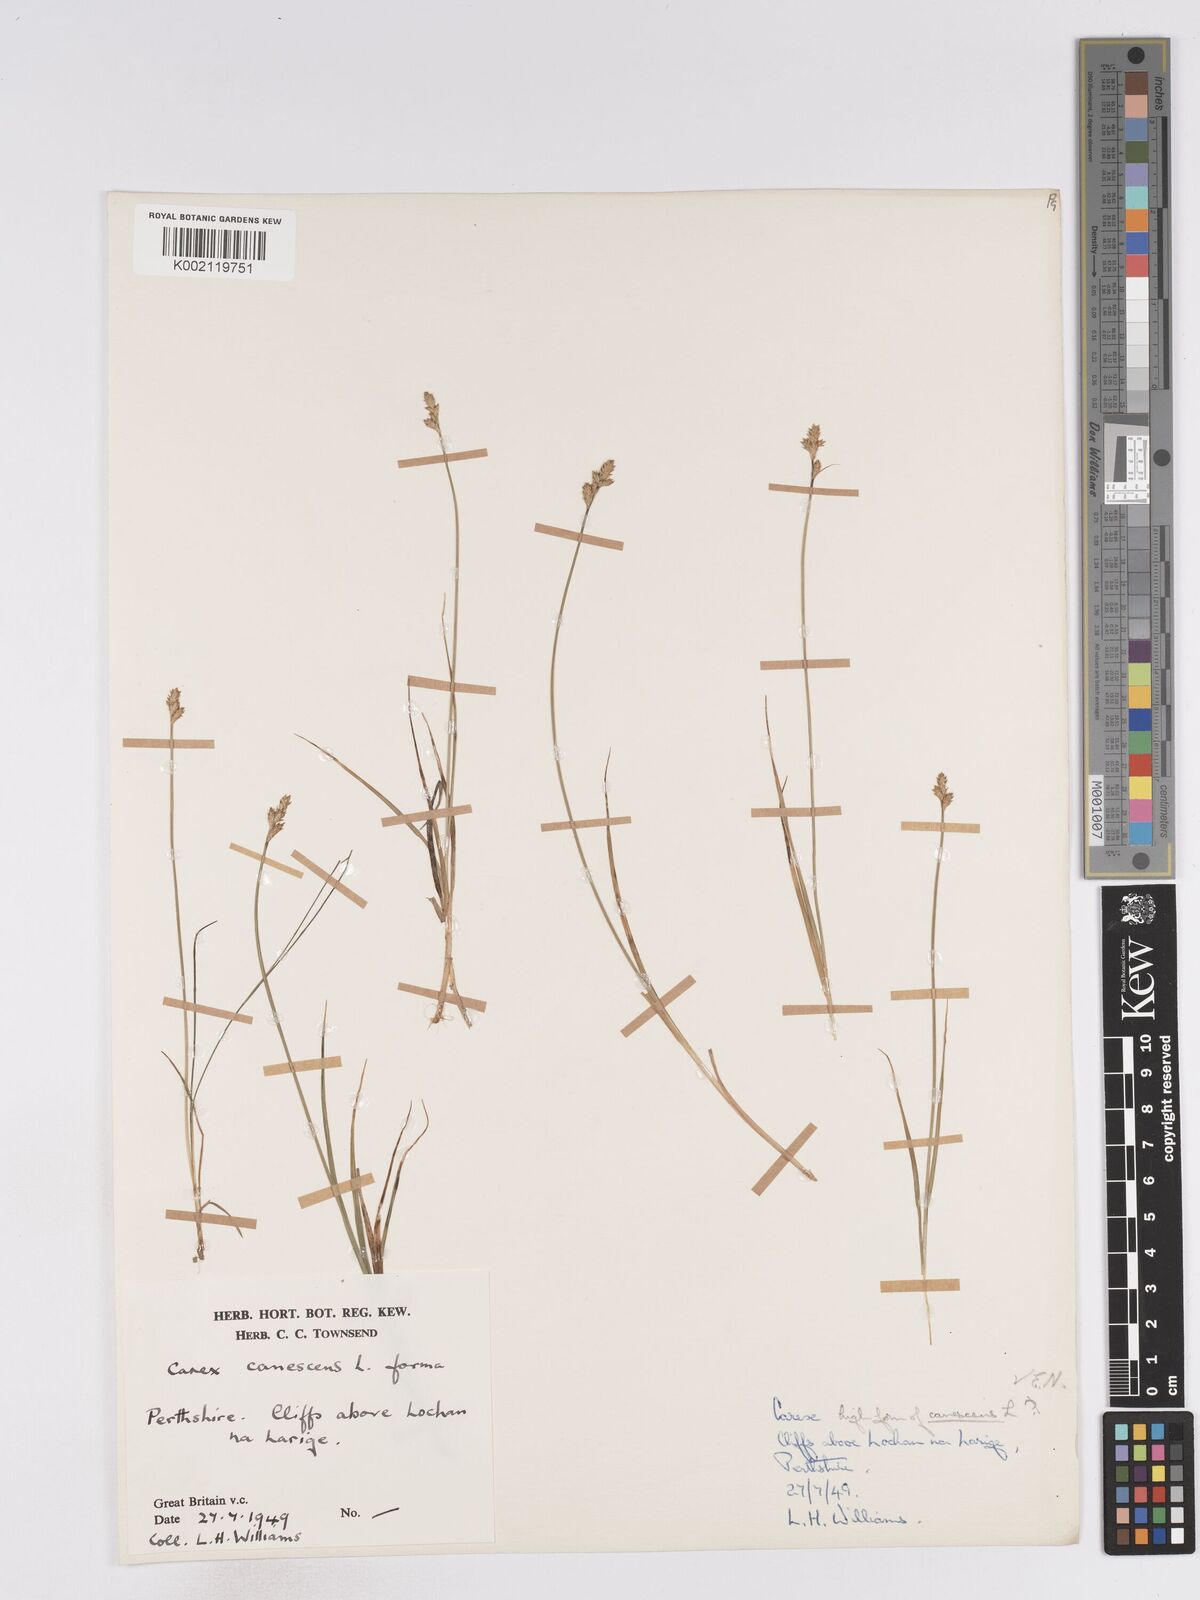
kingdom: Plantae
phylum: Tracheophyta
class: Liliopsida
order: Poales
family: Cyperaceae
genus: Carex
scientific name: Carex curta
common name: White sedge
